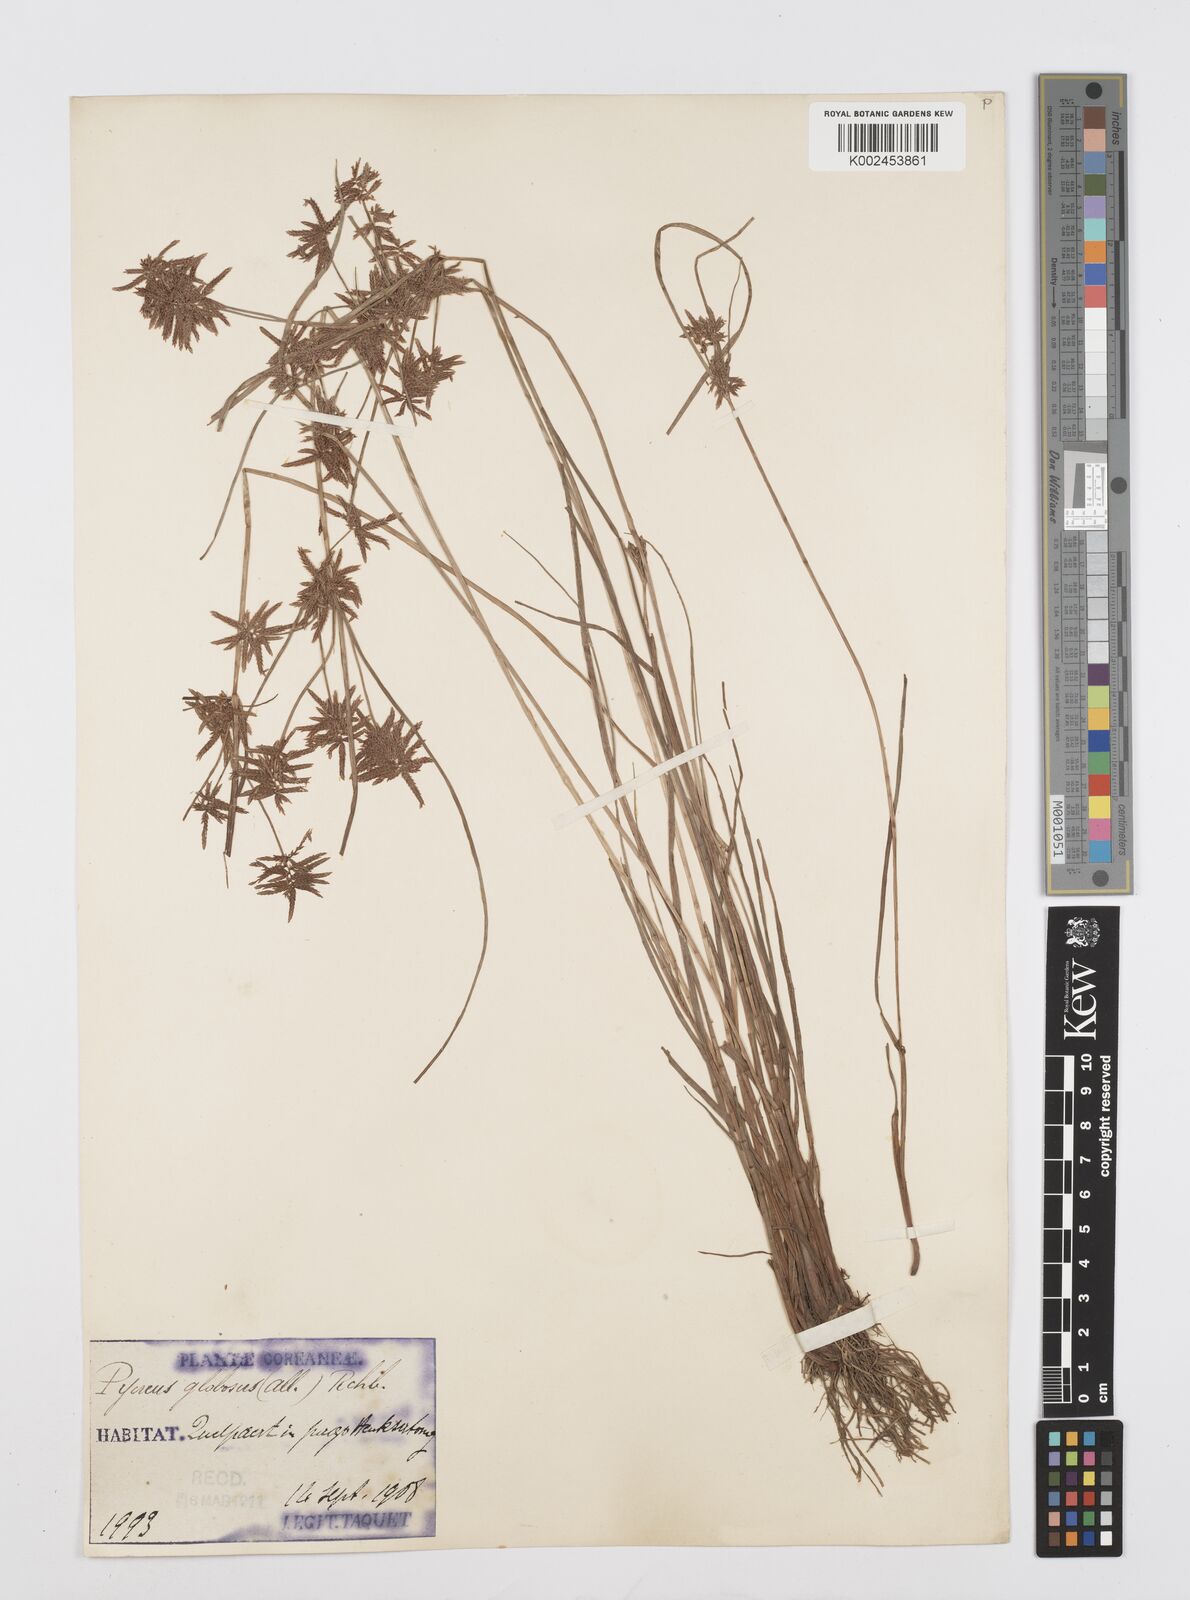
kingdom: Plantae
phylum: Tracheophyta
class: Liliopsida
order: Poales
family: Cyperaceae
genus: Cyperus
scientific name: Cyperus flavidus
